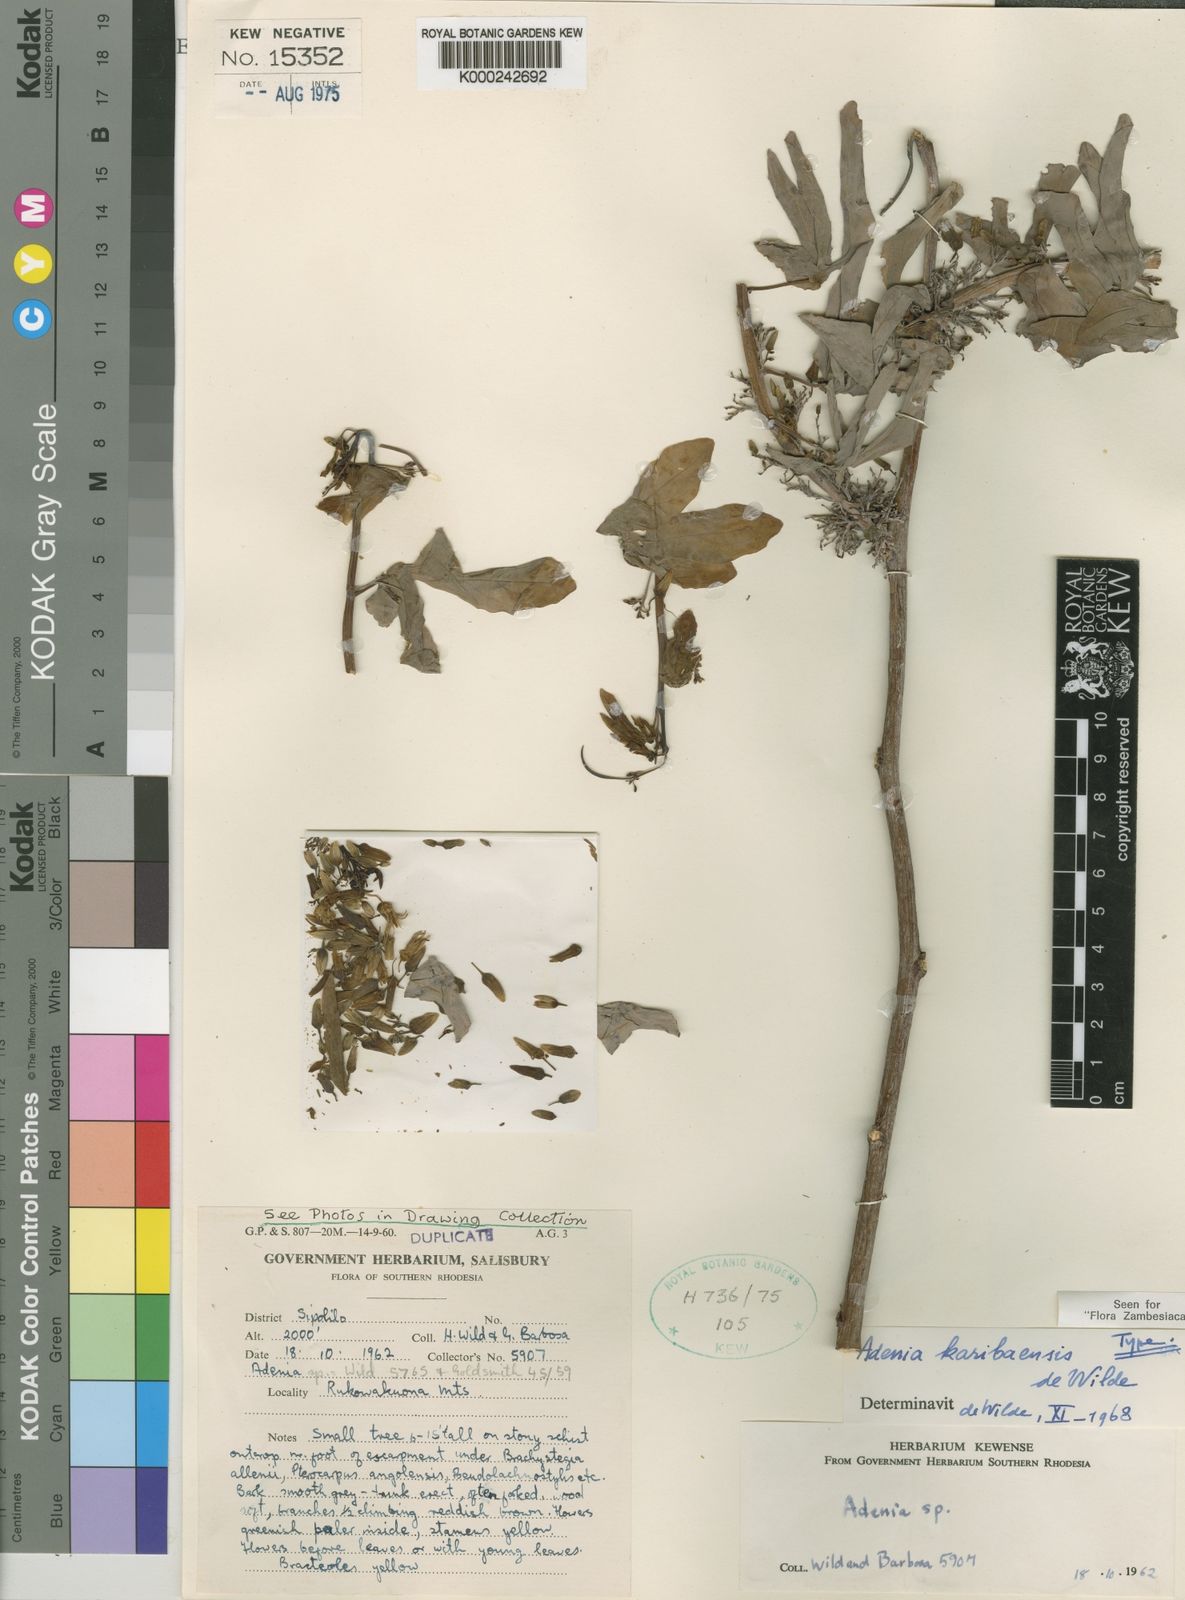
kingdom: Plantae
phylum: Tracheophyta
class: Magnoliopsida
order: Malpighiales
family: Passifloraceae
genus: Adenia
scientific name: Adenia karibaensis
